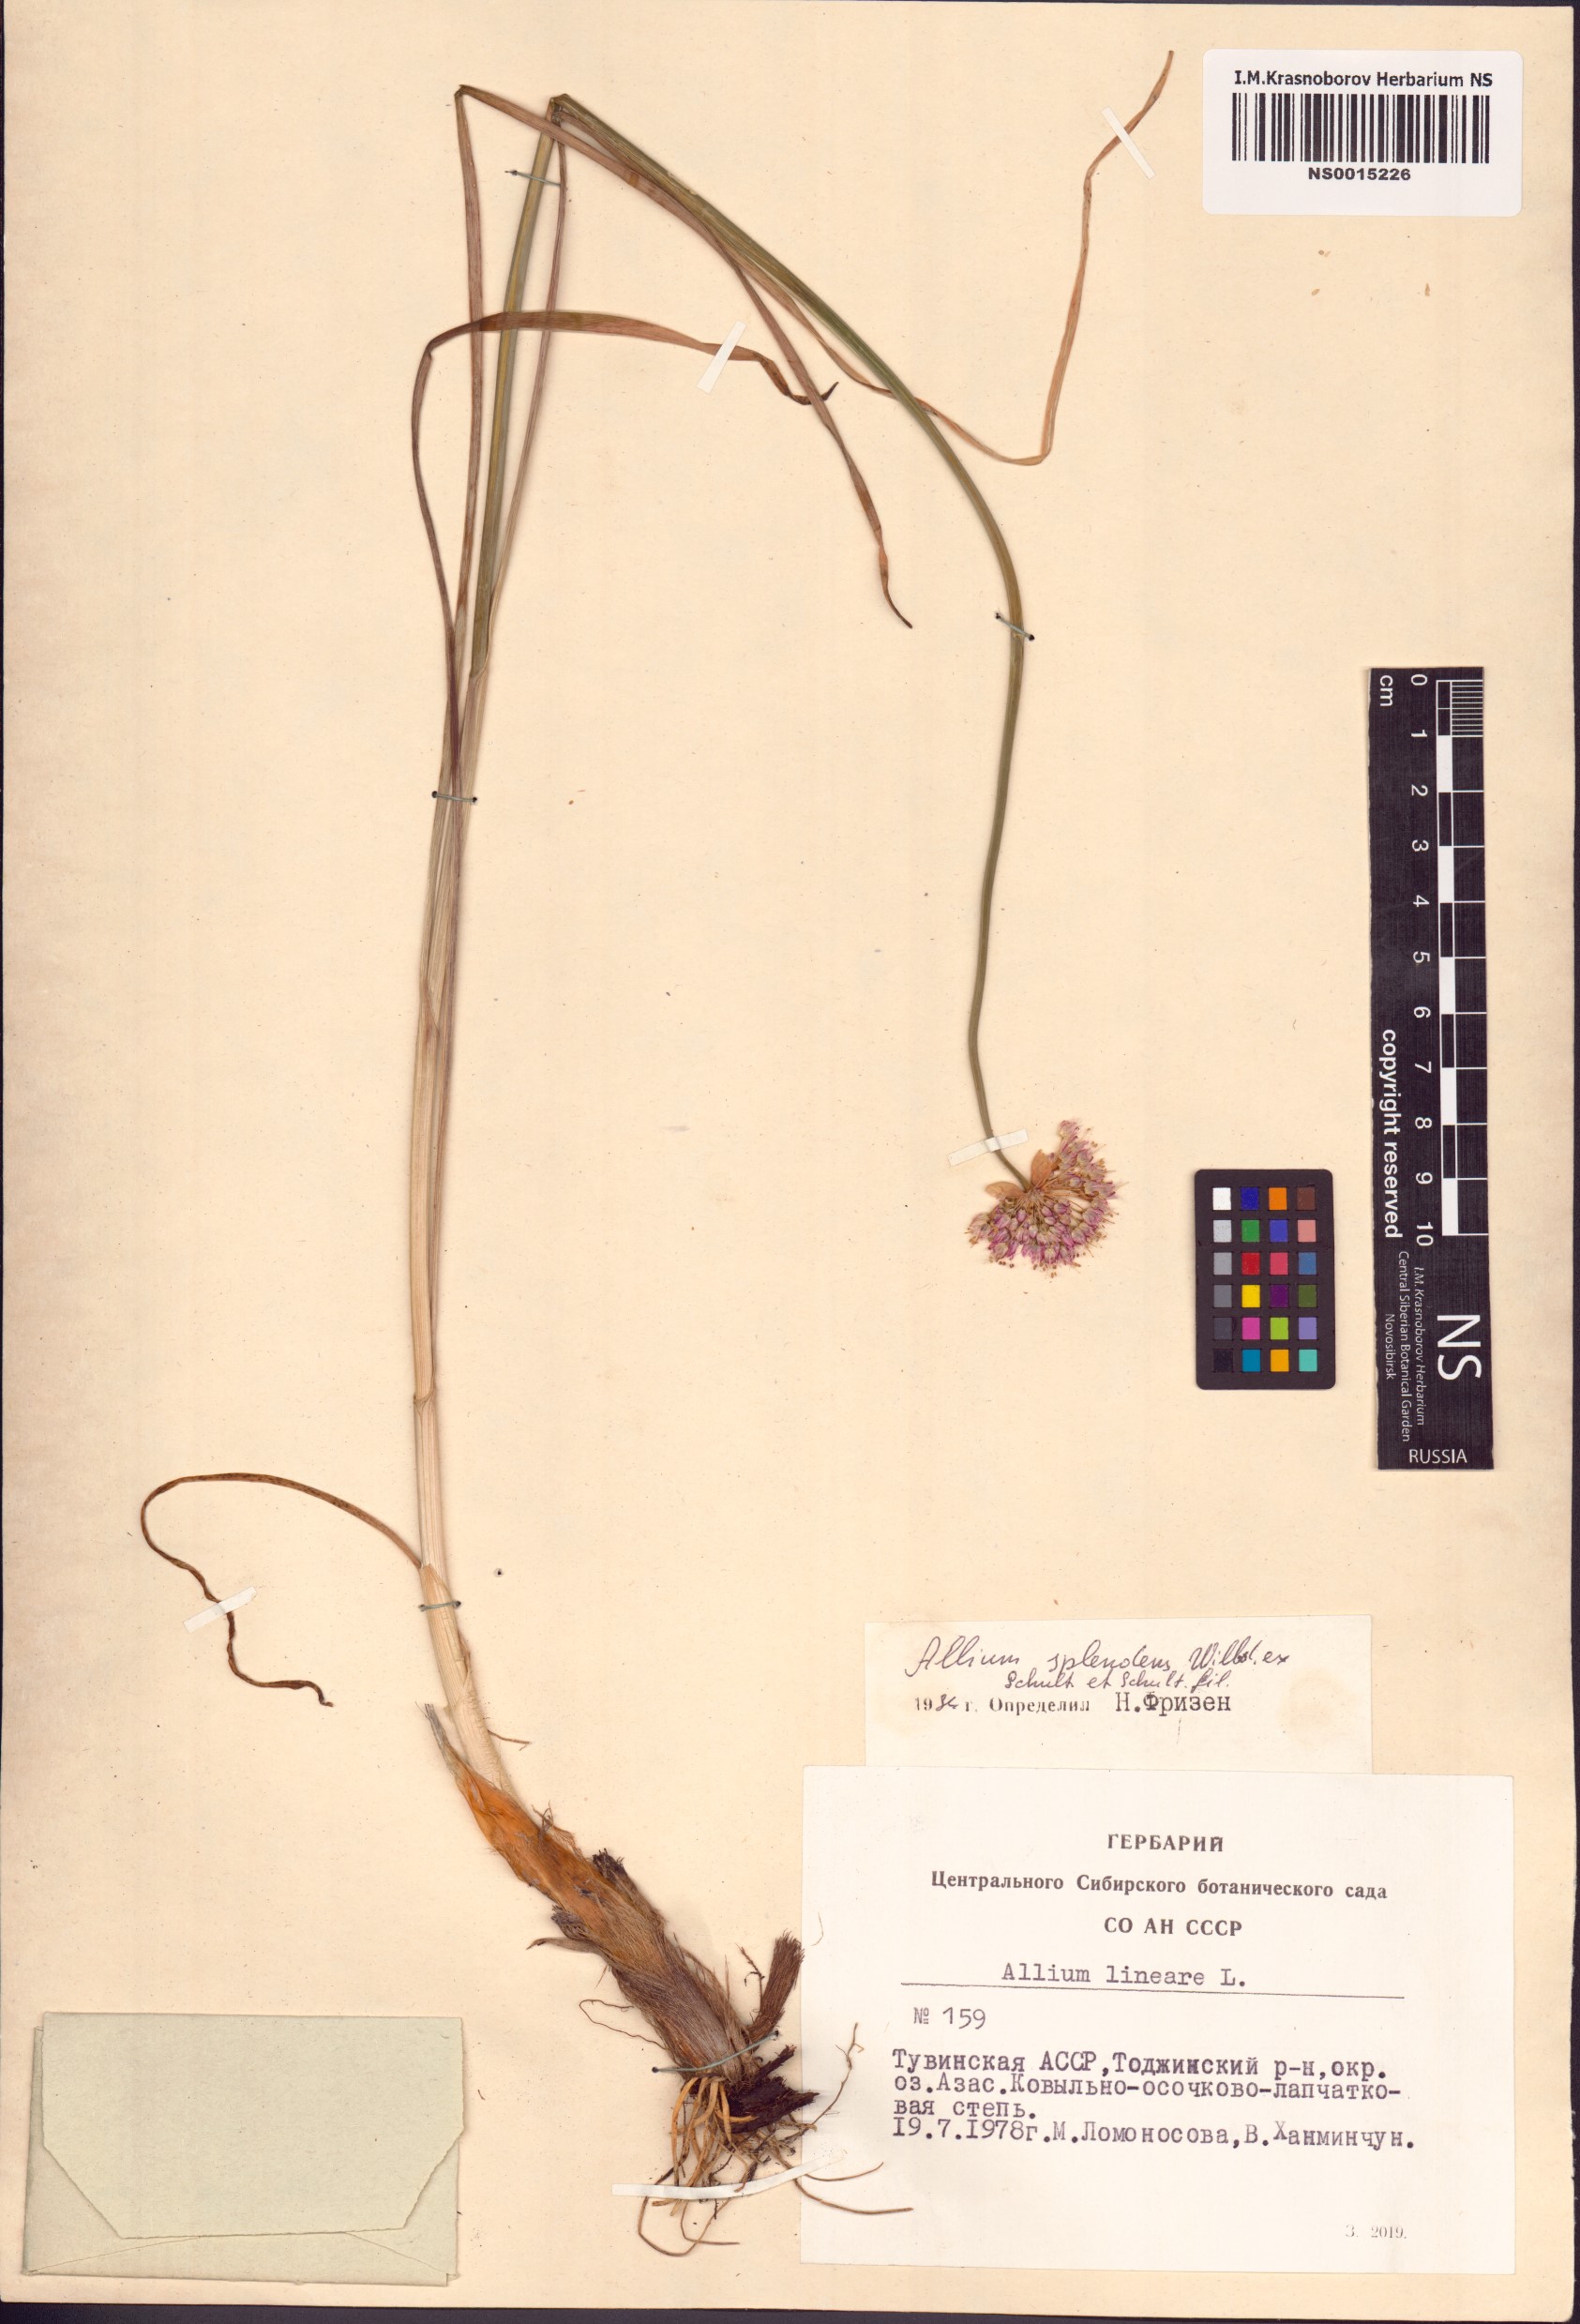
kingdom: Plantae
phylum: Tracheophyta
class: Liliopsida
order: Asparagales
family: Amaryllidaceae
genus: Allium
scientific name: Allium splendens
